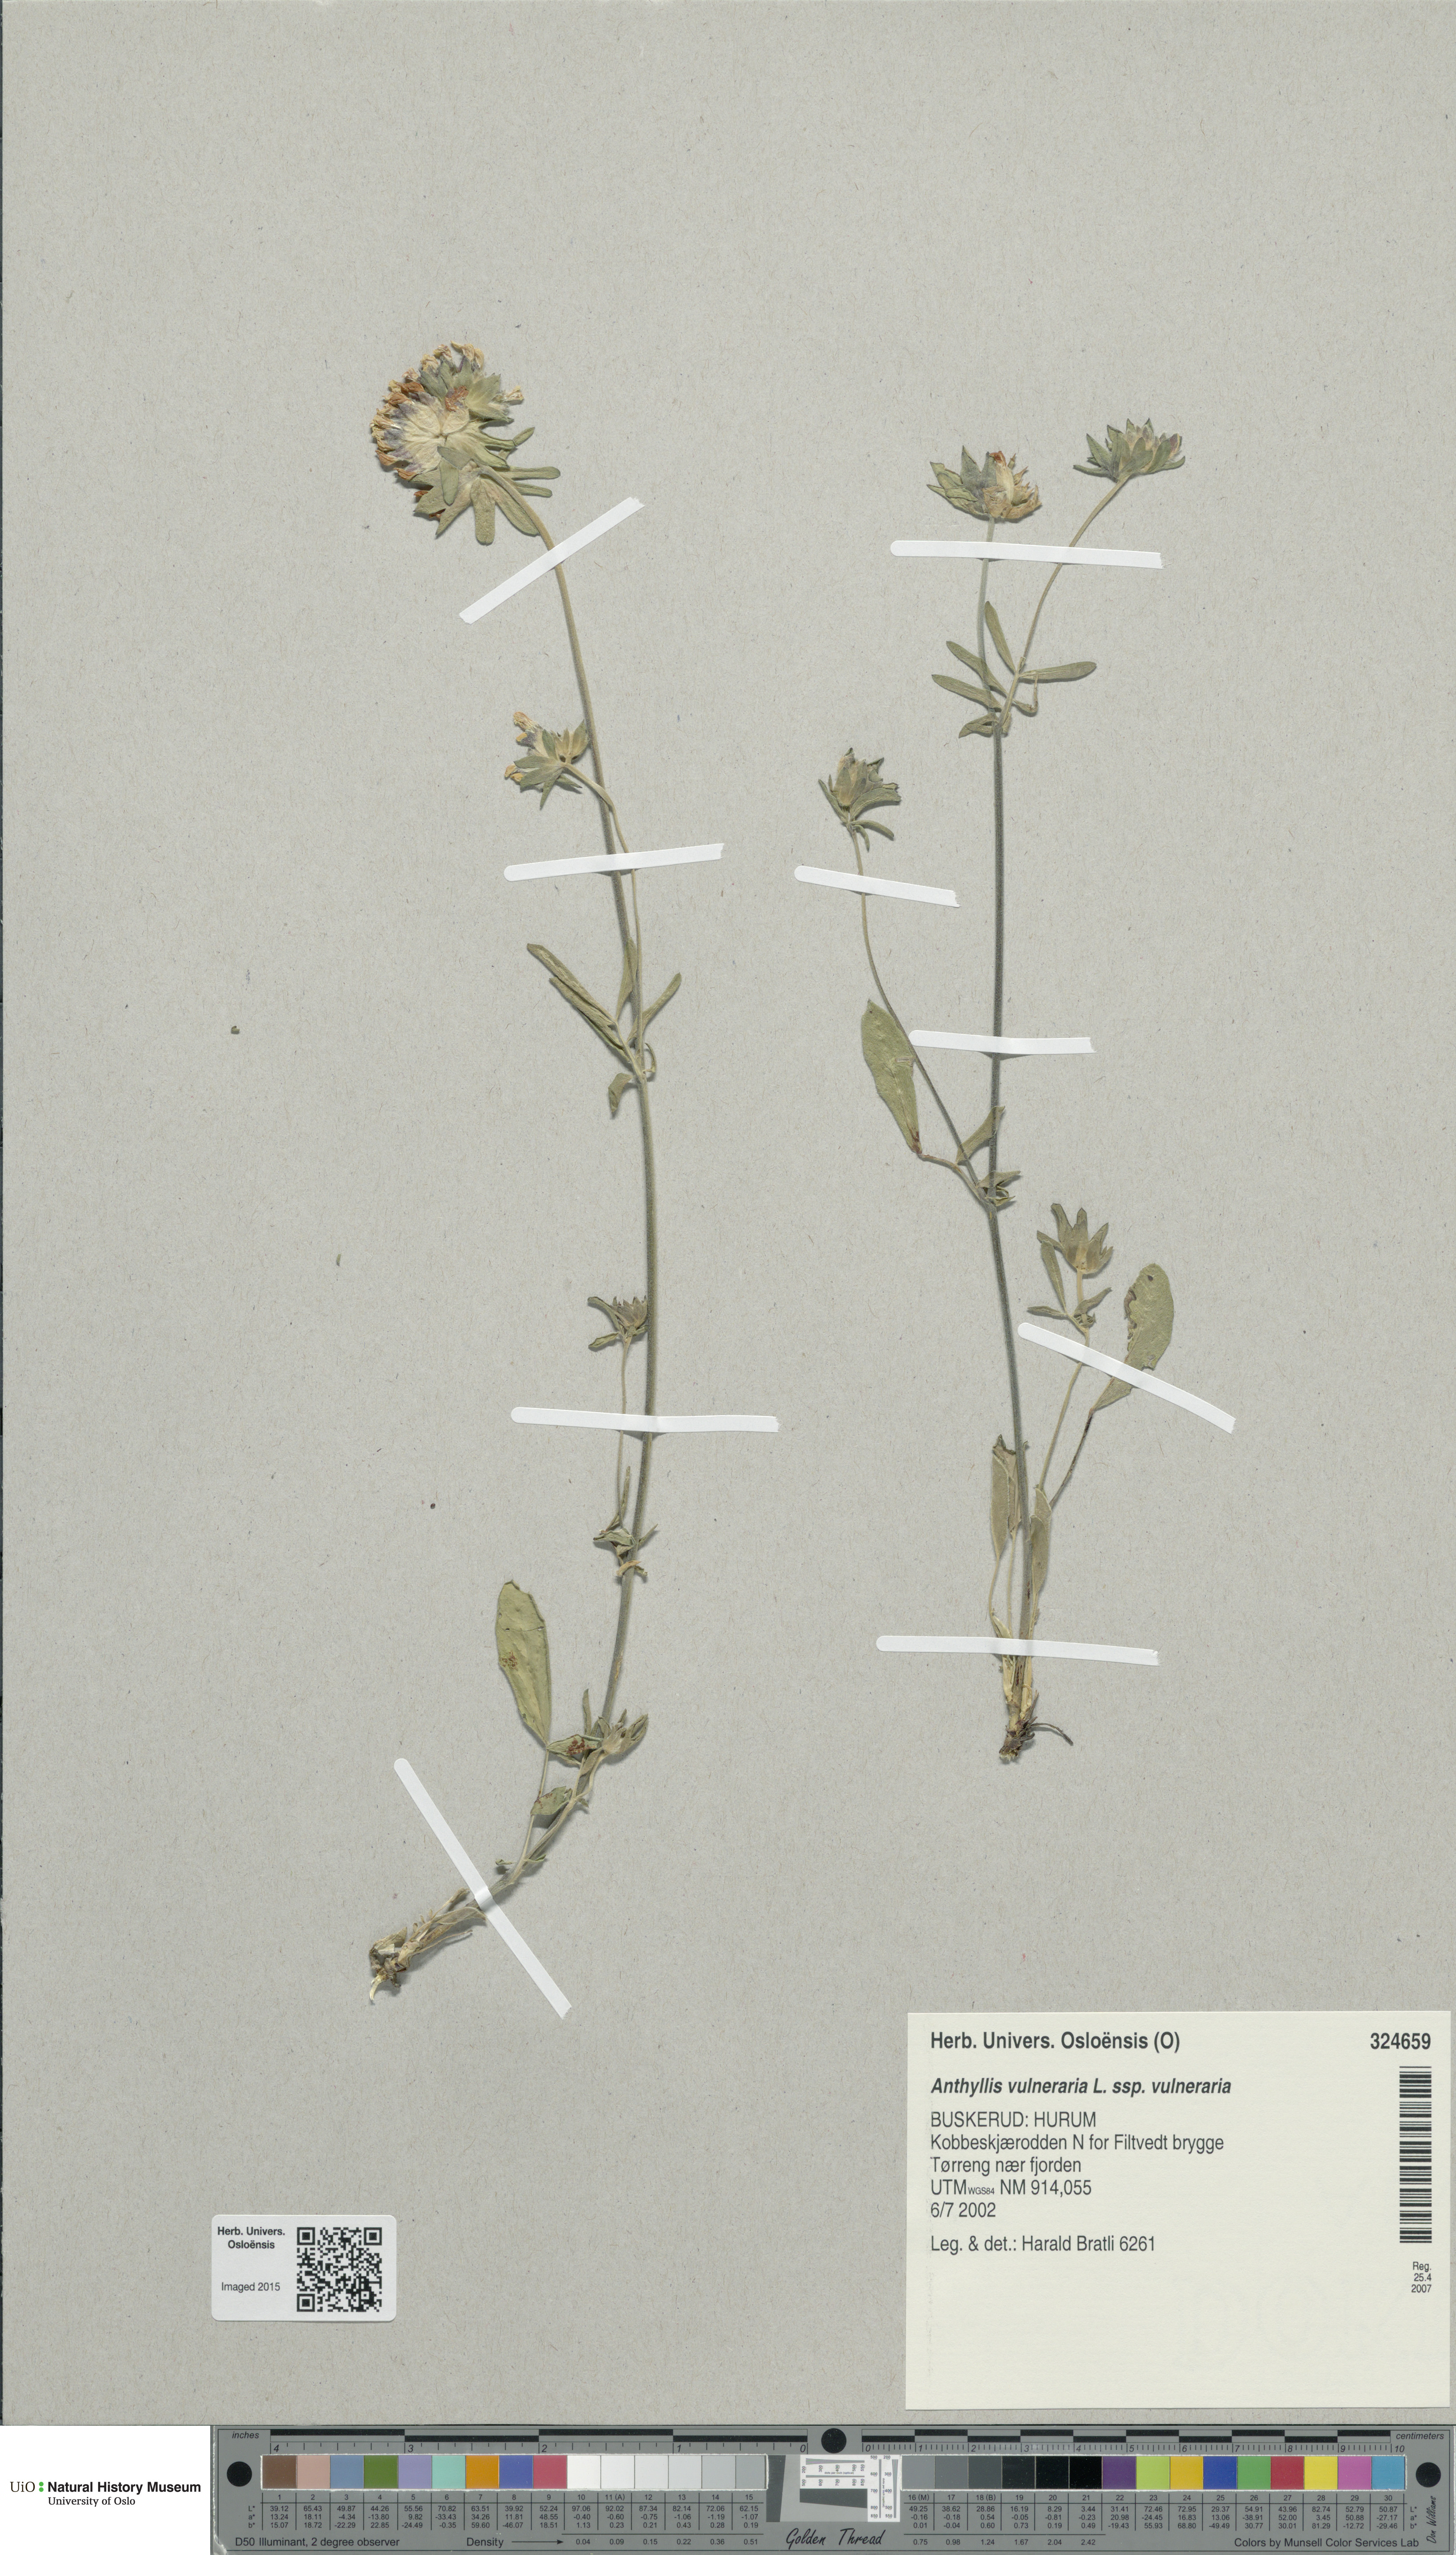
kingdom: Plantae
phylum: Tracheophyta
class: Magnoliopsida
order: Fabales
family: Fabaceae
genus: Anthyllis
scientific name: Anthyllis vulneraria
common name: Kidney vetch
